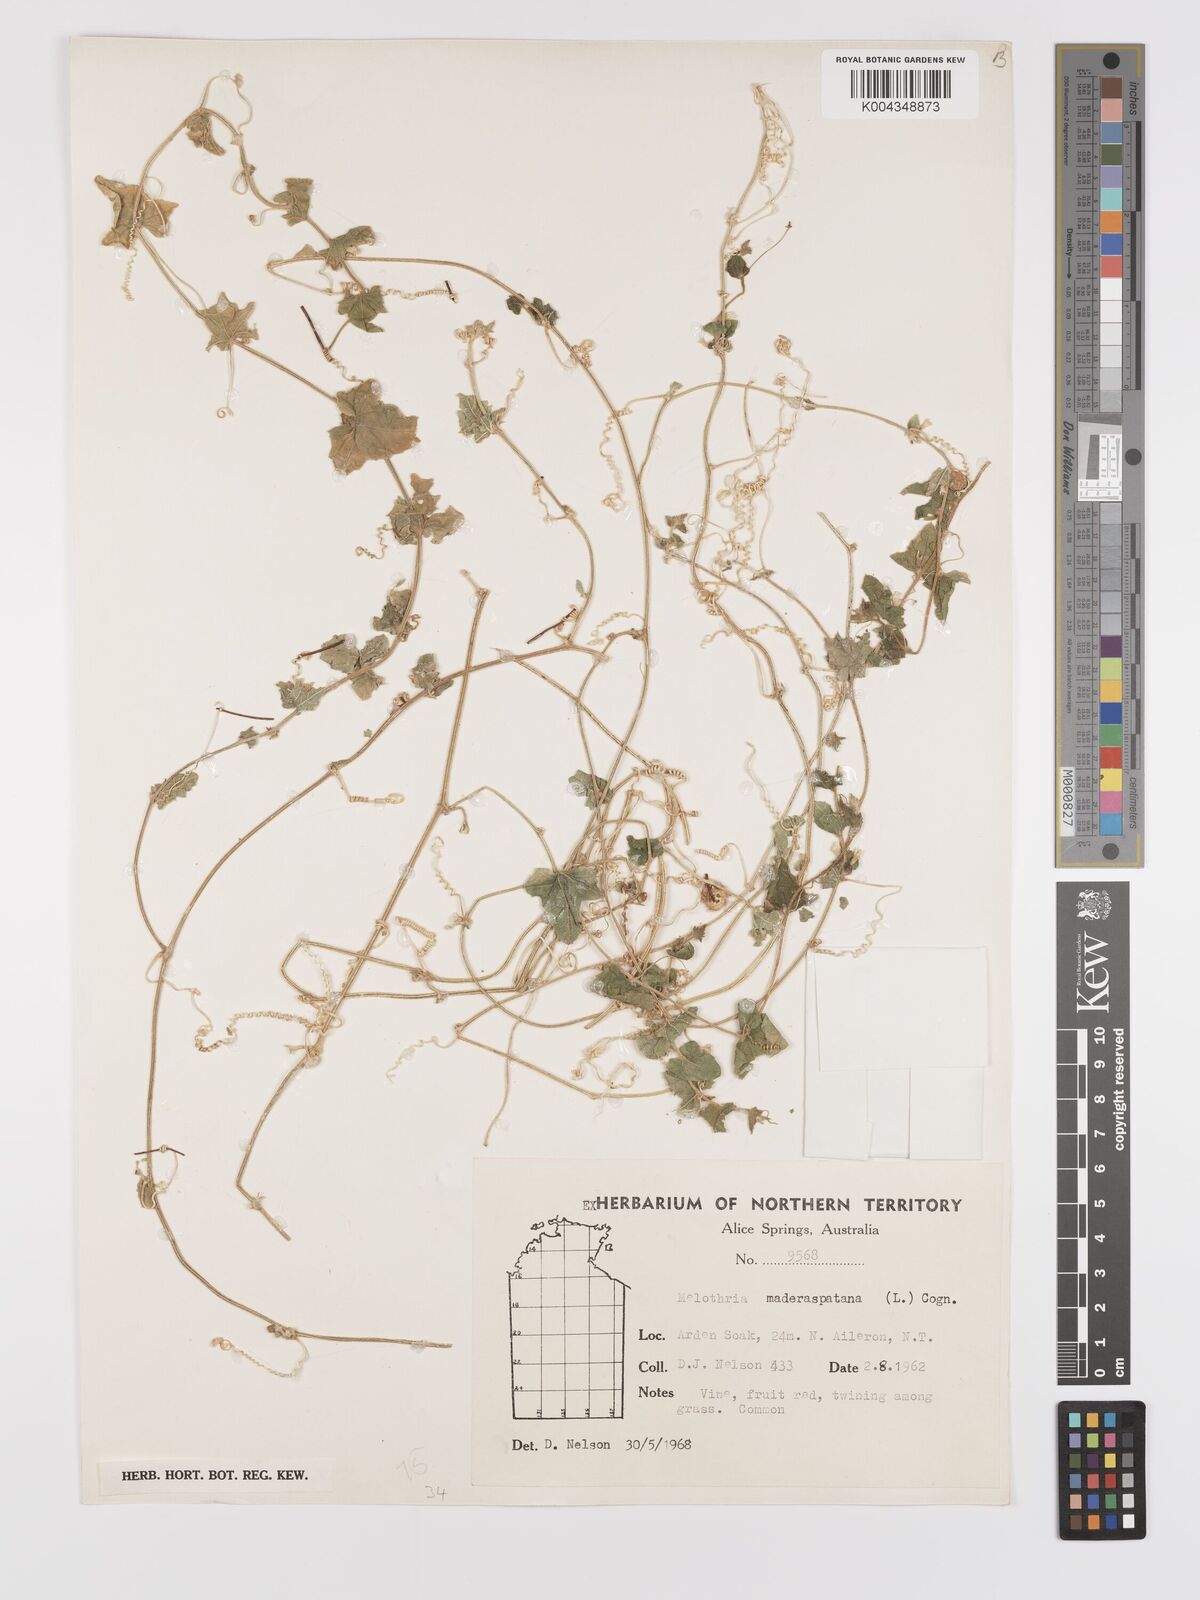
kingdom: Animalia
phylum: Arthropoda
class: Insecta
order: Lepidoptera
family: Crambidae
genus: Mukia
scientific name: Mukia
